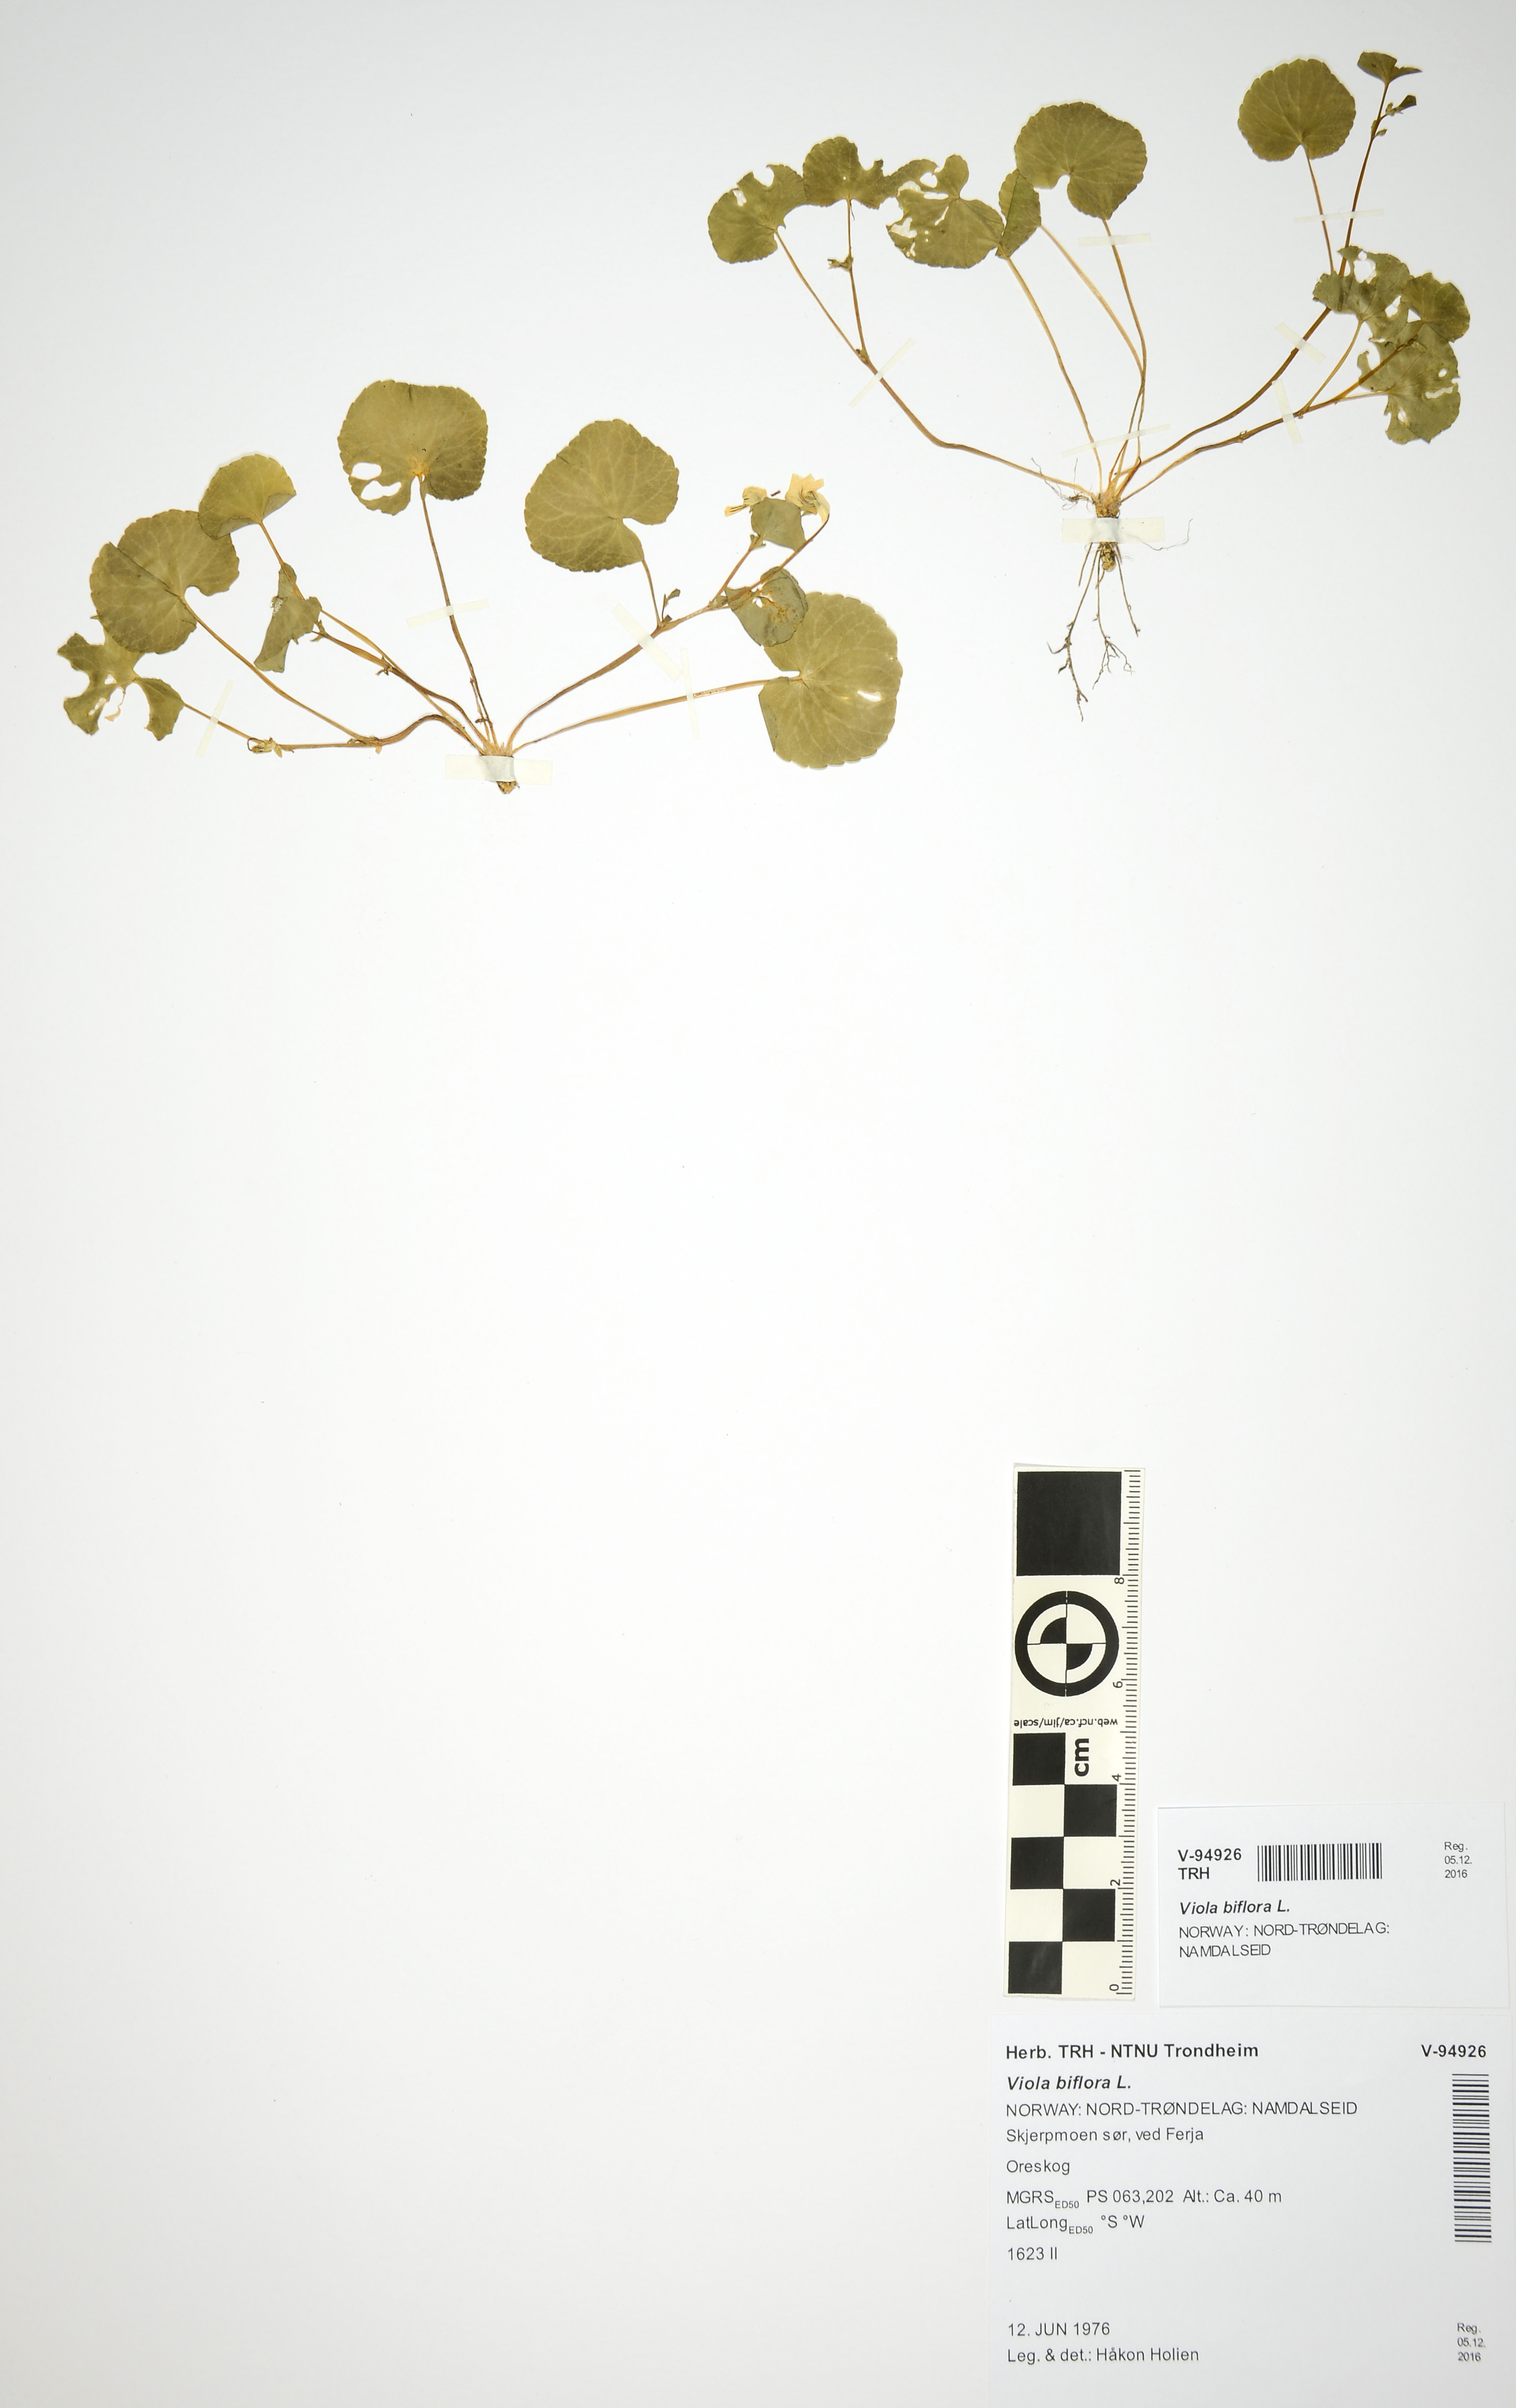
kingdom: Plantae
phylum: Tracheophyta
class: Magnoliopsida
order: Malpighiales
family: Violaceae
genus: Viola
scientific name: Viola biflora
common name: Alpine yellow violet
